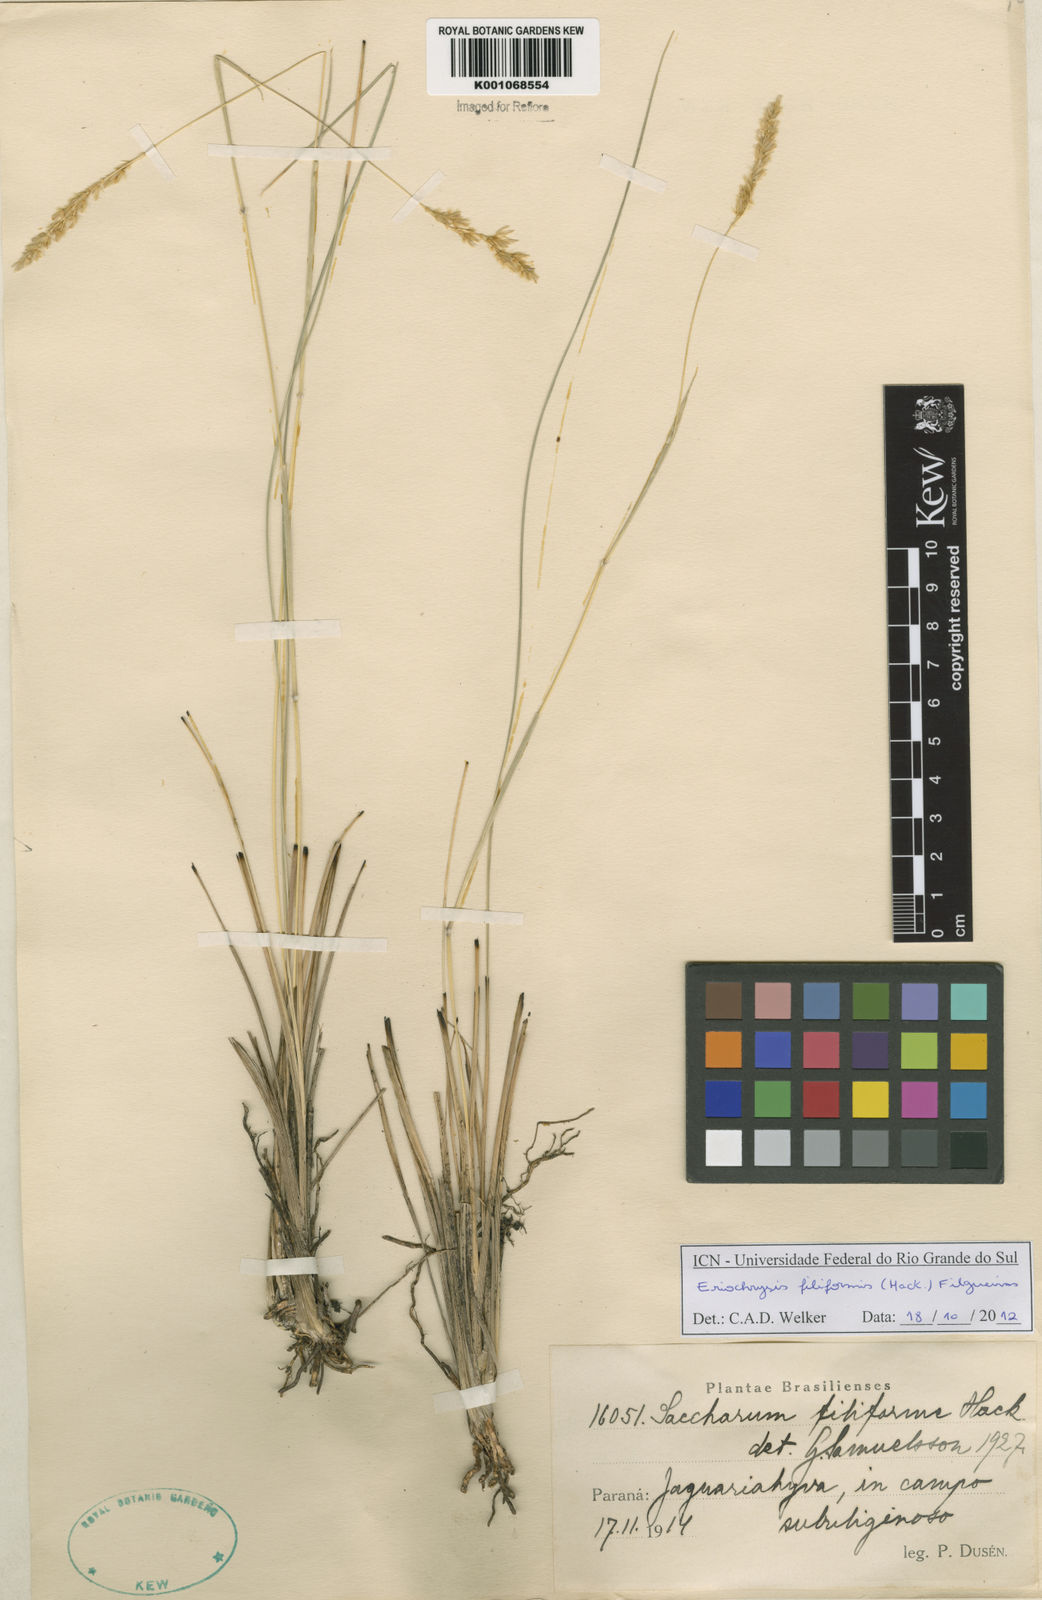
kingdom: Plantae
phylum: Tracheophyta
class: Liliopsida
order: Poales
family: Poaceae
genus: Eriochrysis
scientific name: Eriochrysis filiformis
